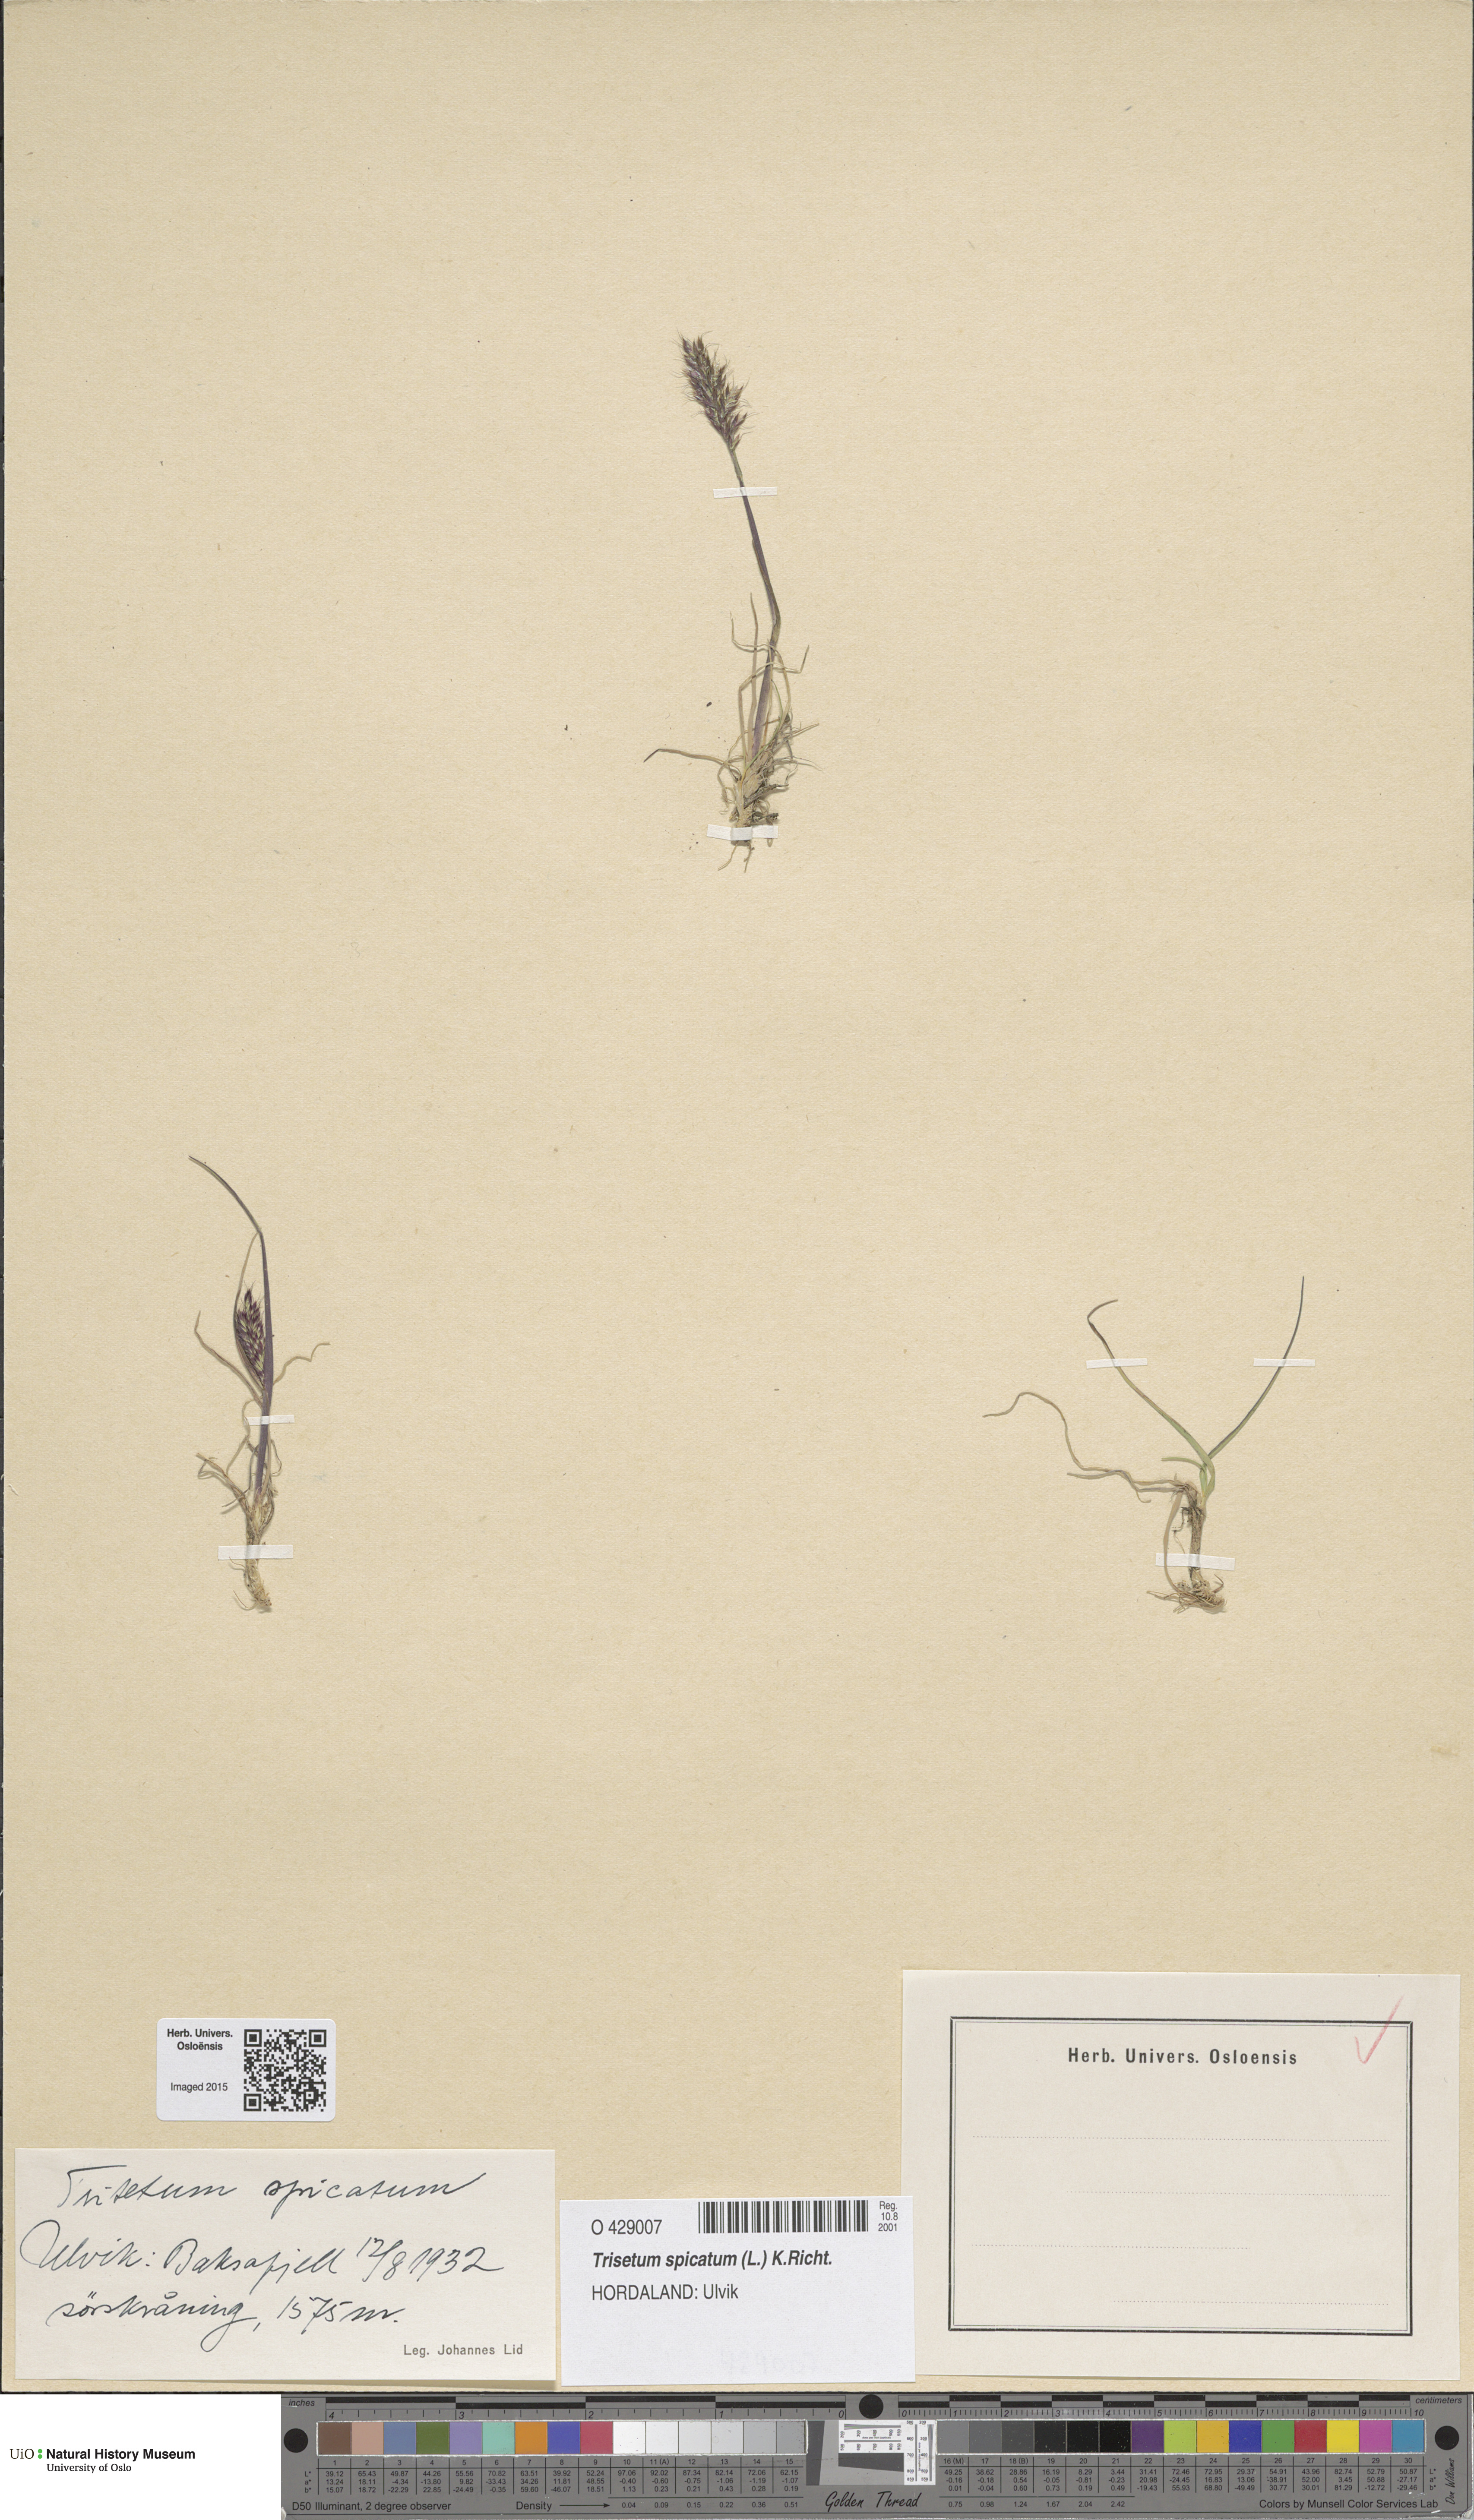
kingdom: Plantae
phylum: Tracheophyta
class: Liliopsida
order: Poales
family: Poaceae
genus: Koeleria
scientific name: Koeleria spicata
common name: Mountain trisetum
